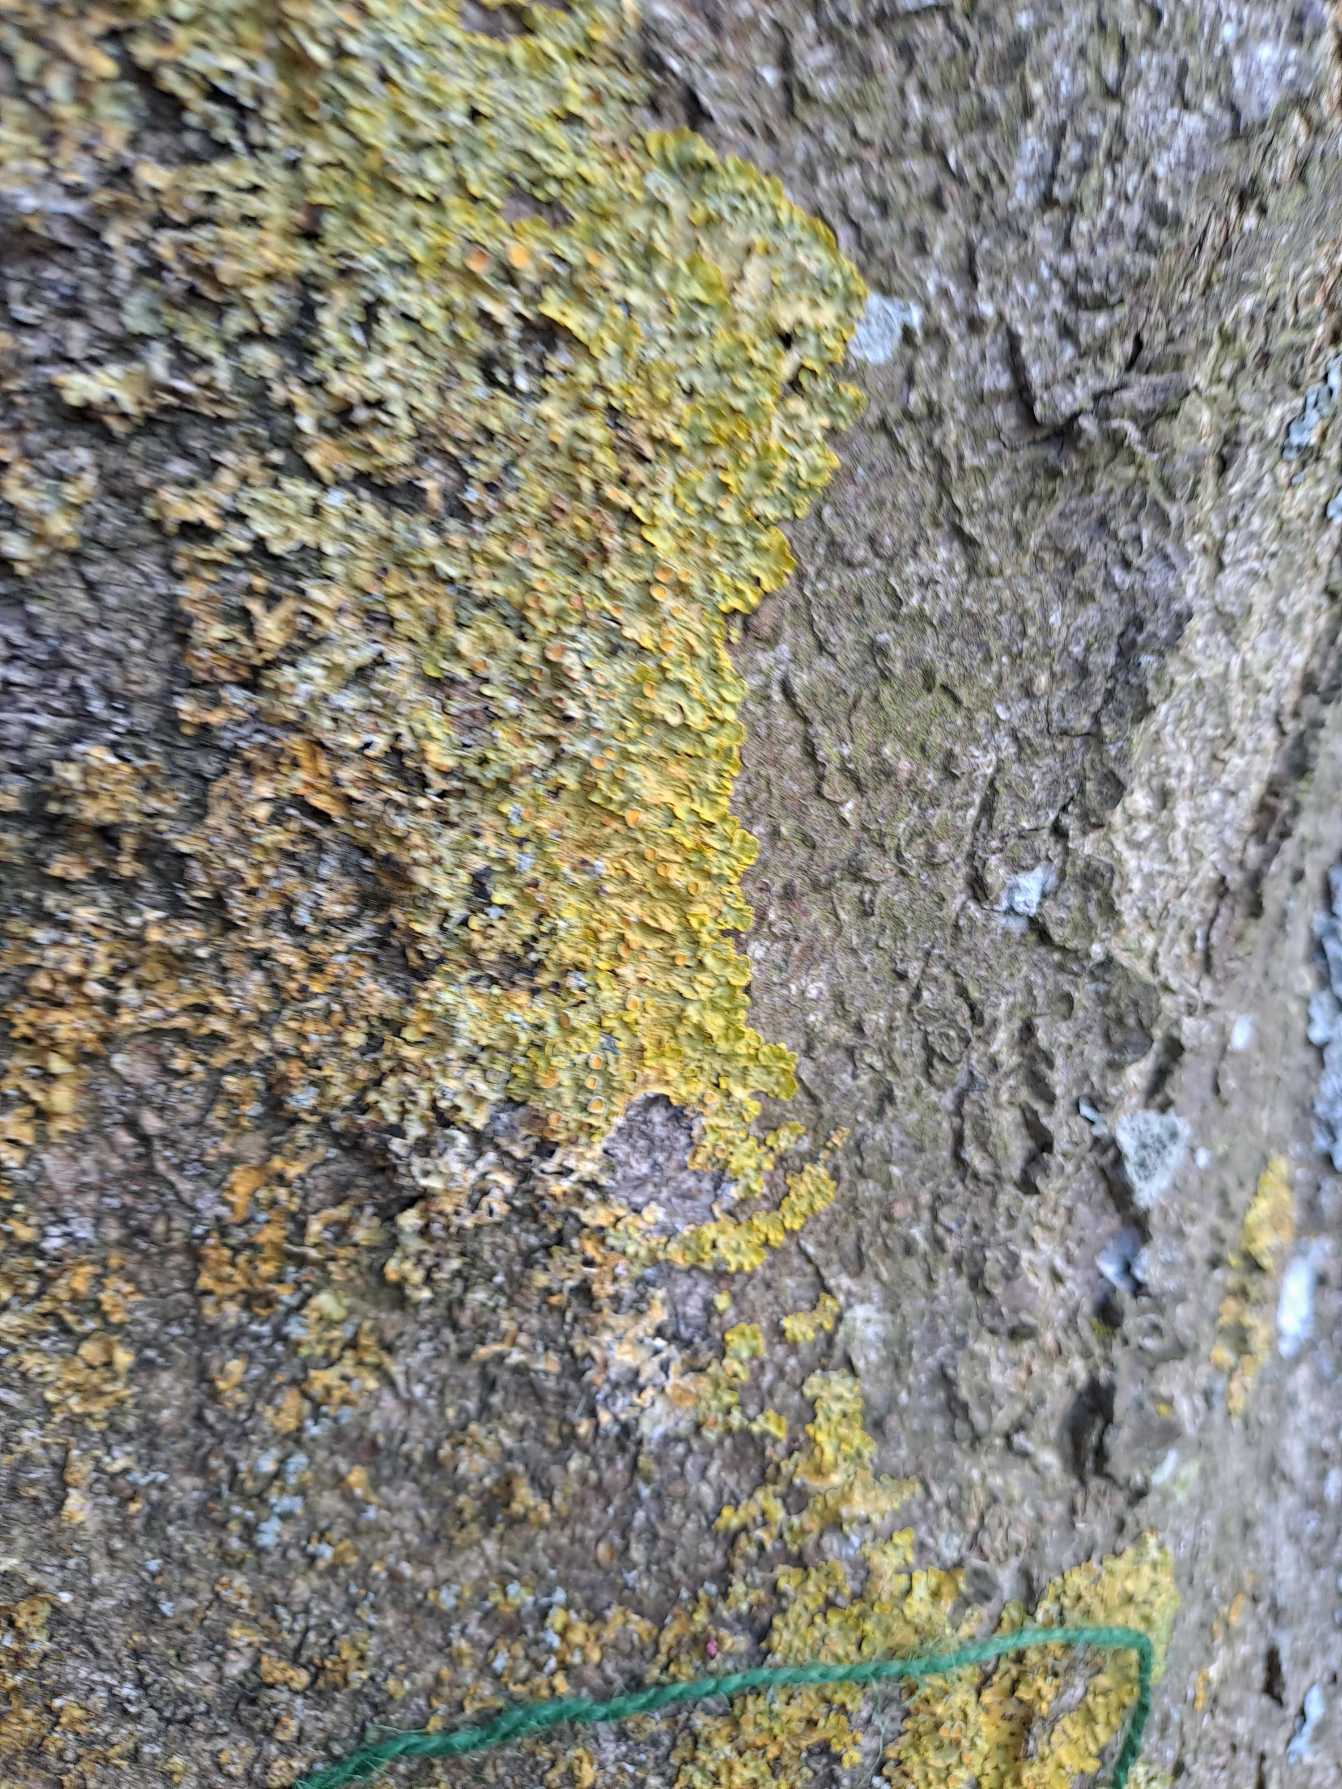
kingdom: Fungi
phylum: Ascomycota
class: Lecanoromycetes
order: Teloschistales
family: Teloschistaceae
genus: Xanthoria
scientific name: Xanthoria parietina
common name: Almindelig væggelav
